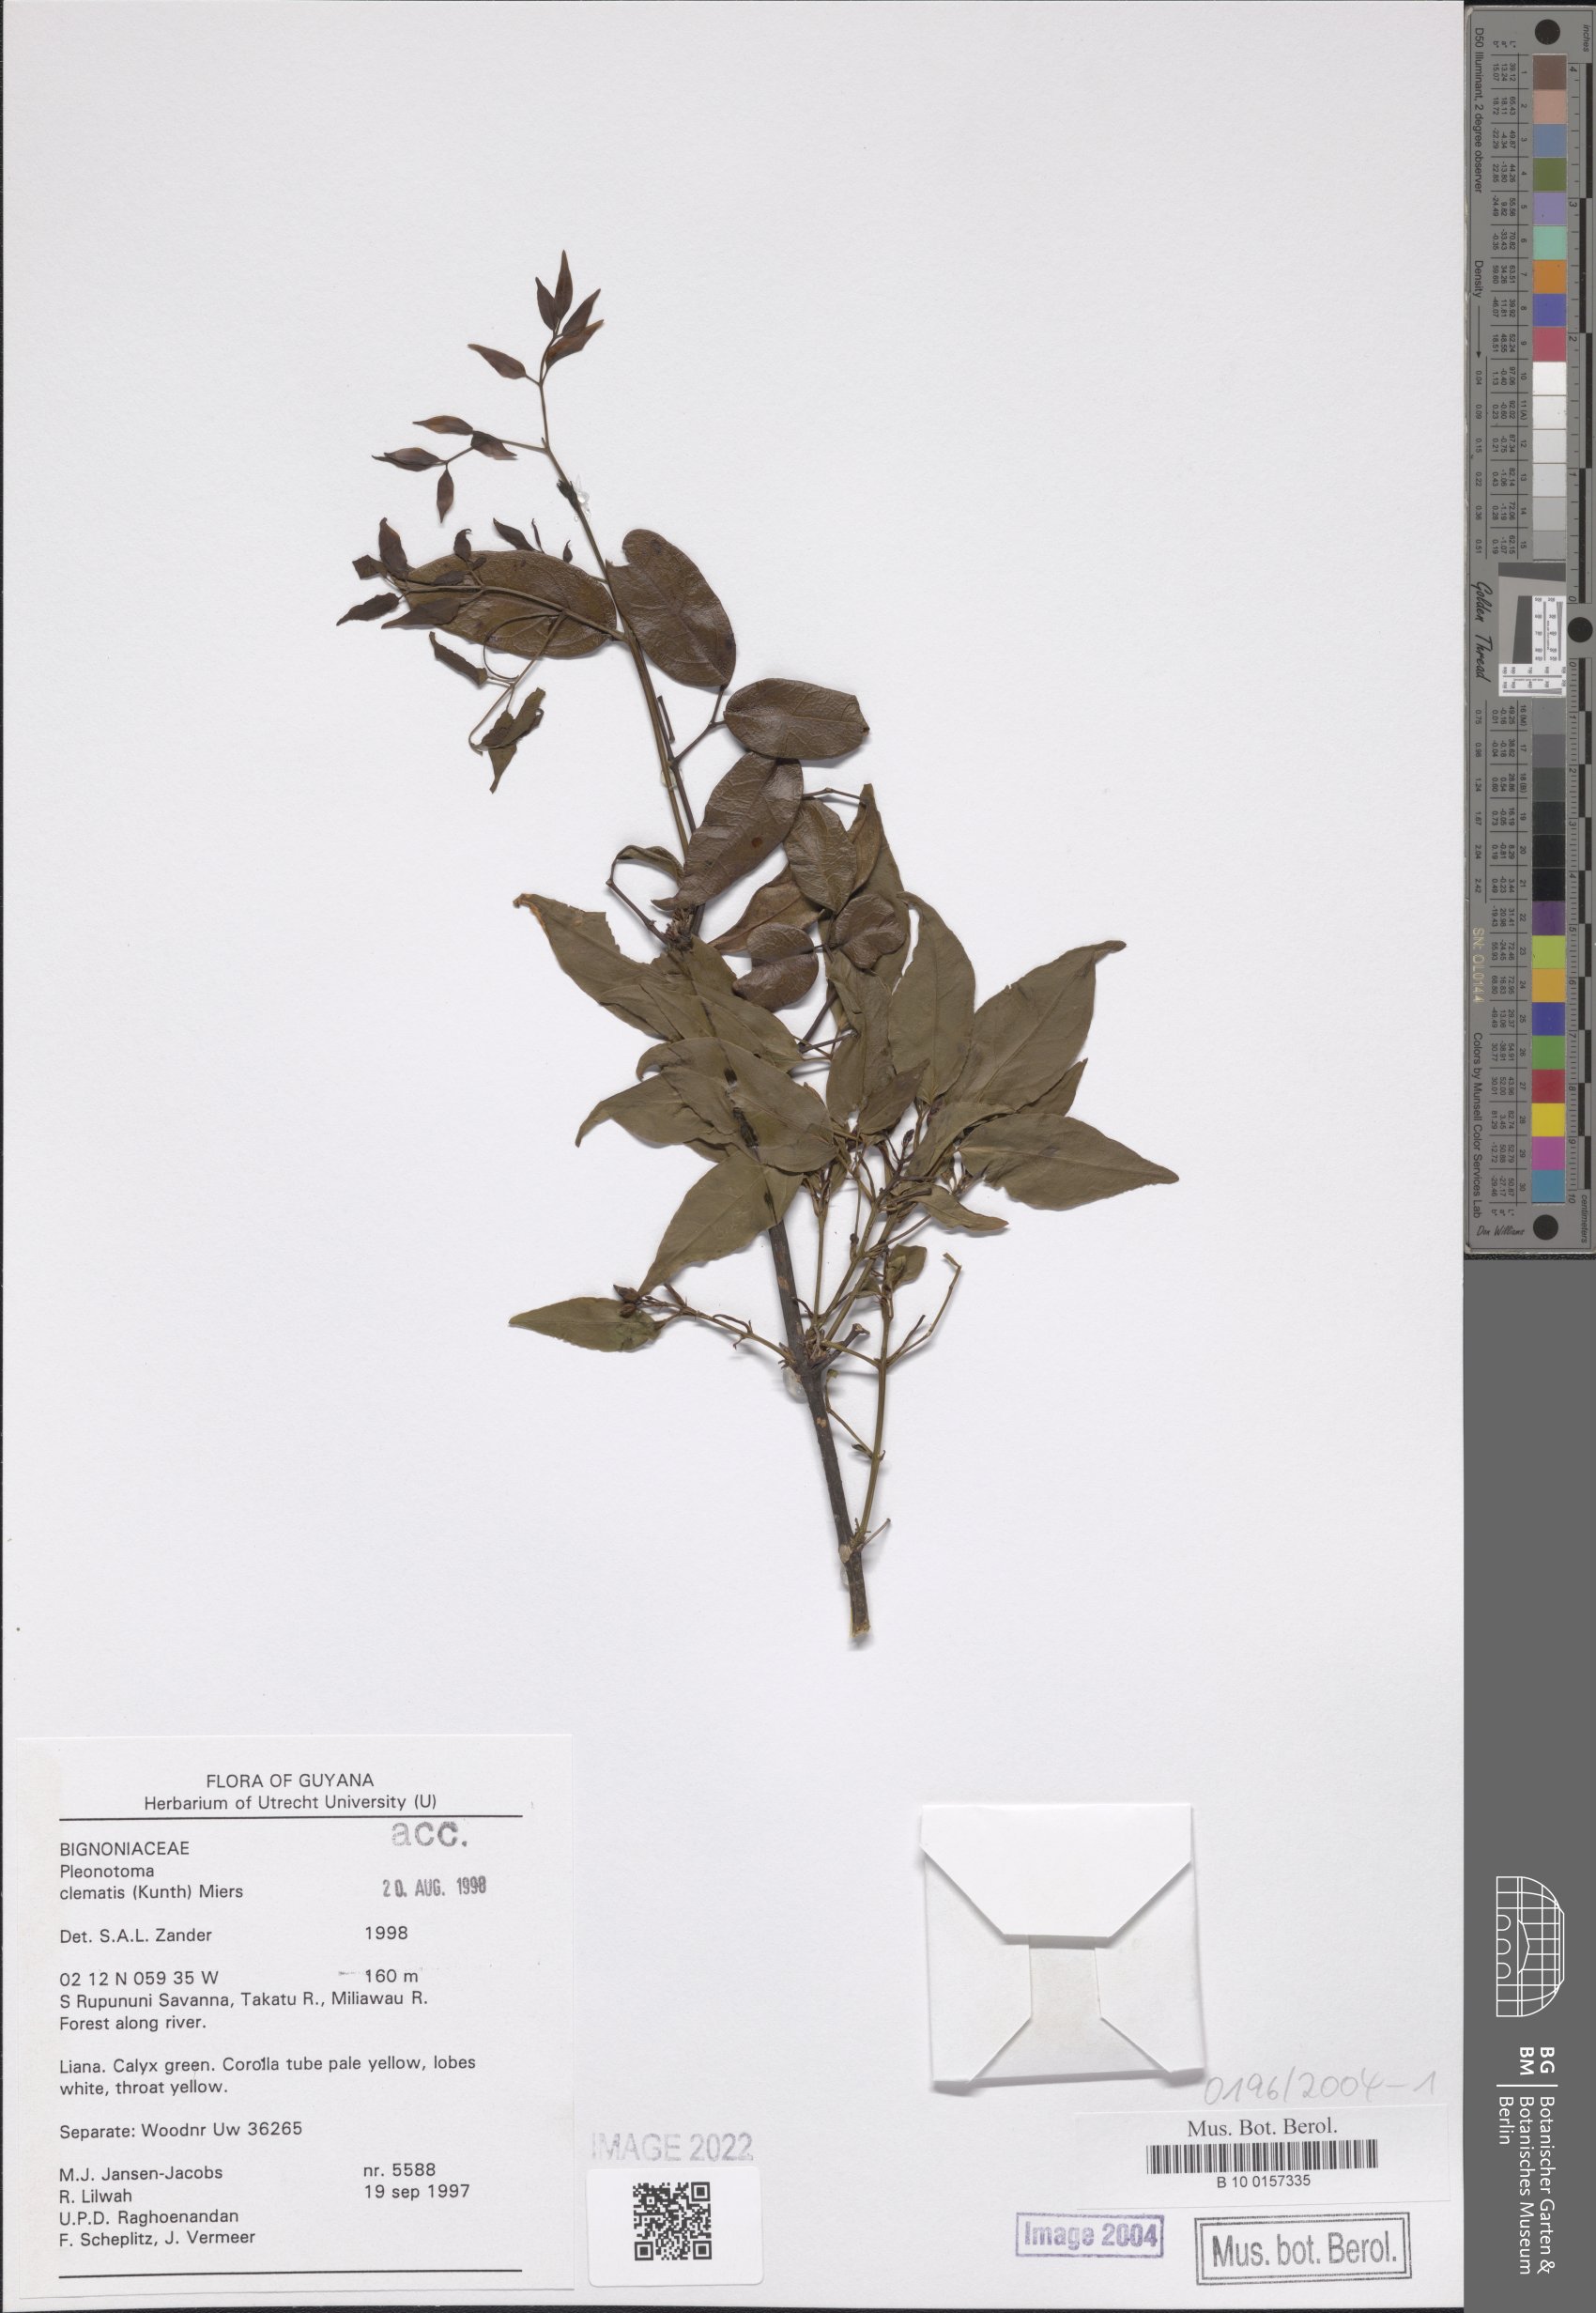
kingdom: Plantae
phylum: Tracheophyta
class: Magnoliopsida
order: Lamiales
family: Bignoniaceae
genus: Pleonotoma
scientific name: Pleonotoma clematis
